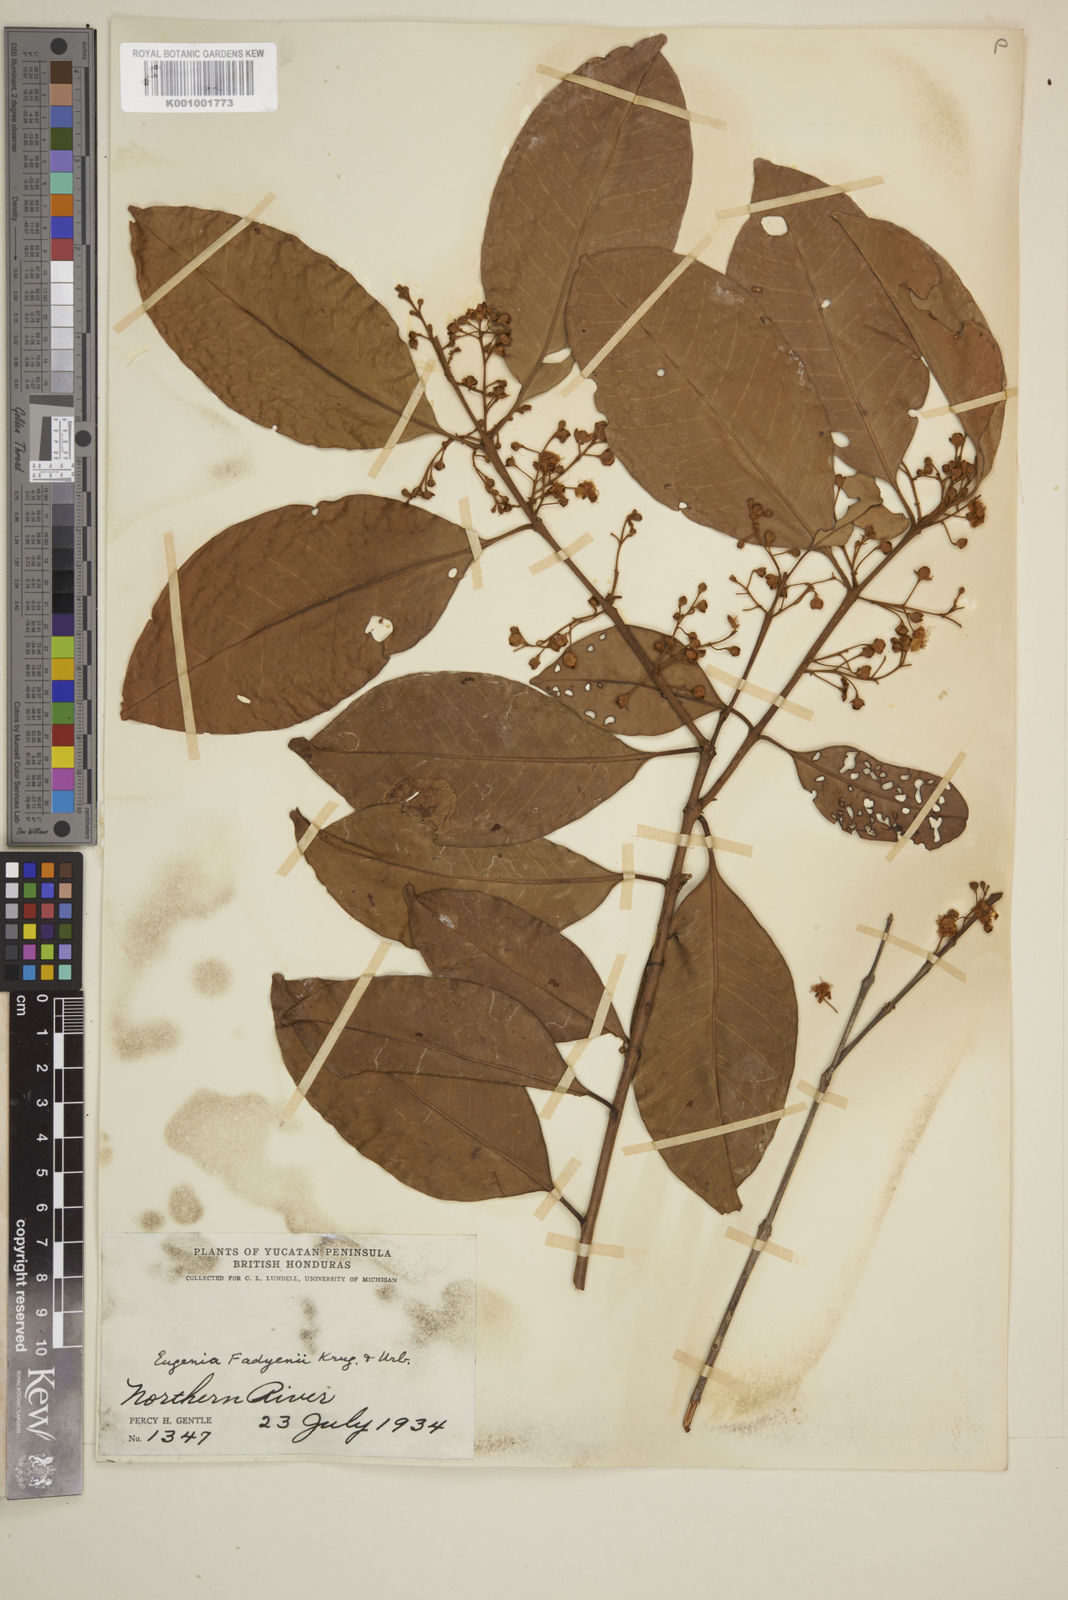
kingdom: Plantae
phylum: Tracheophyta
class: Magnoliopsida
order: Myrtales
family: Myrtaceae
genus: Eugenia
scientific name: Eugenia aeruginea
